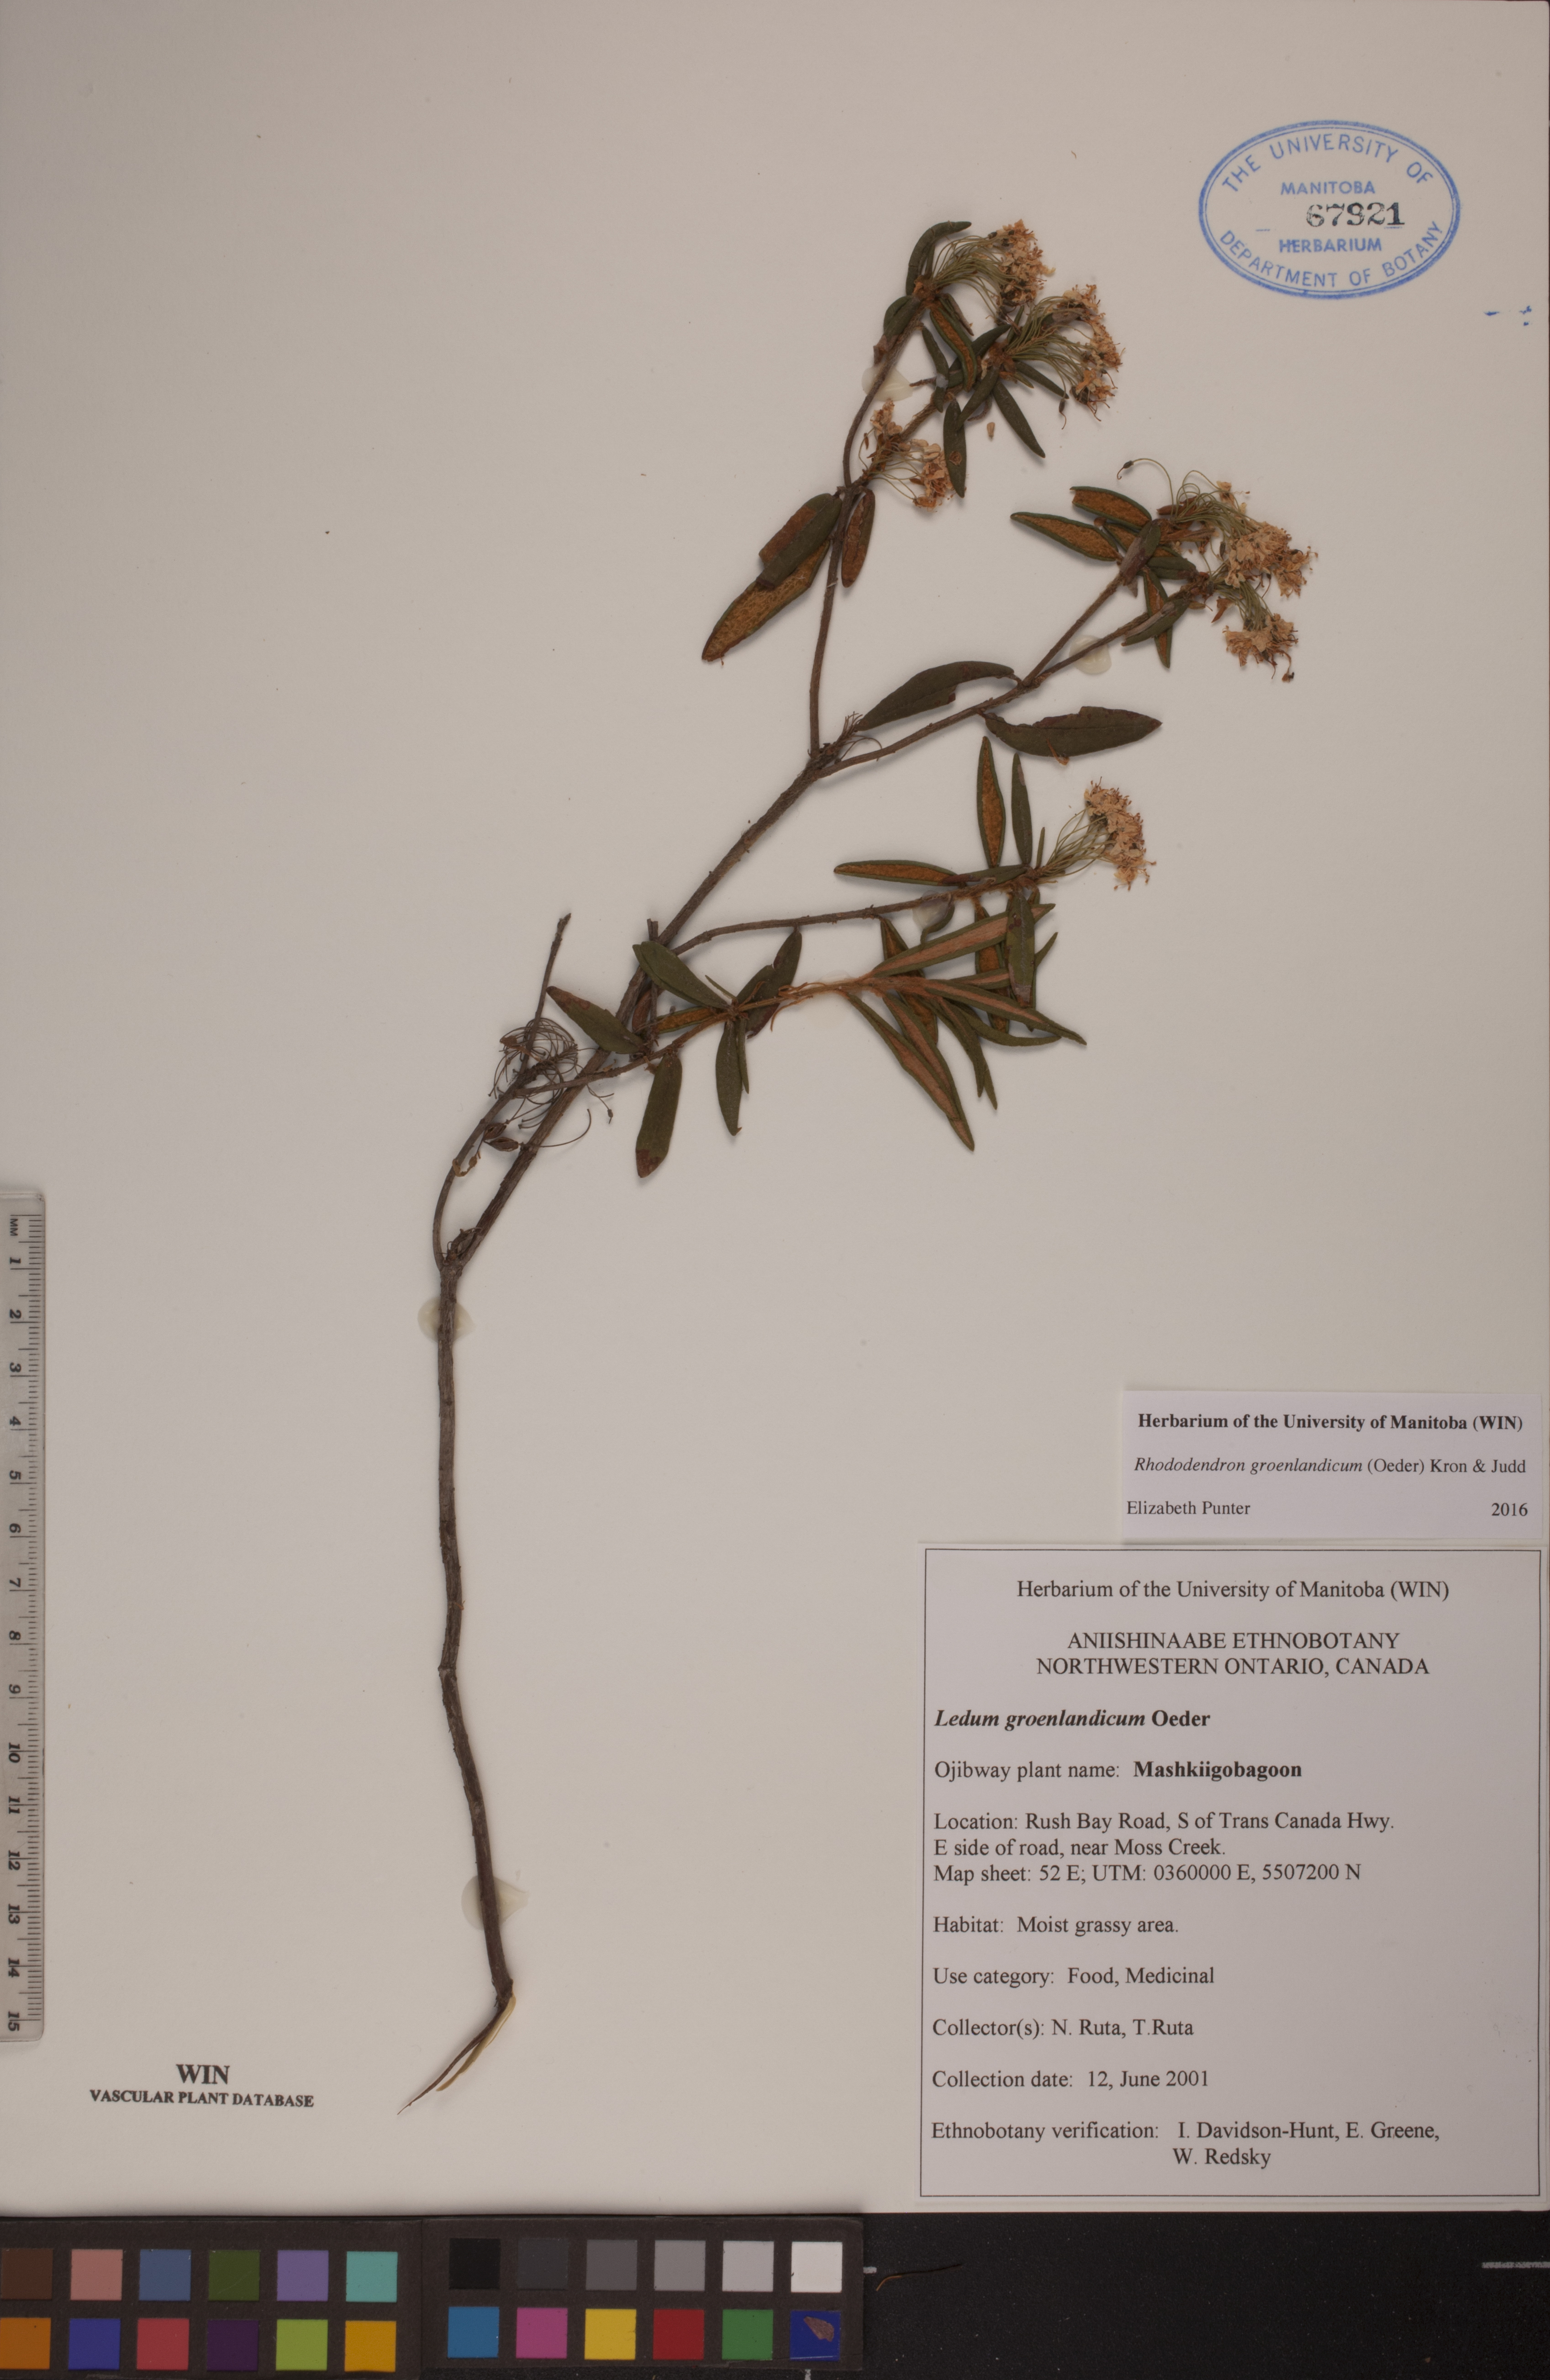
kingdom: Plantae
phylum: Tracheophyta
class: Magnoliopsida
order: Ericales
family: Ericaceae
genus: Rhododendron
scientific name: Rhododendron groenlandicum
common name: Bog labrador tea
